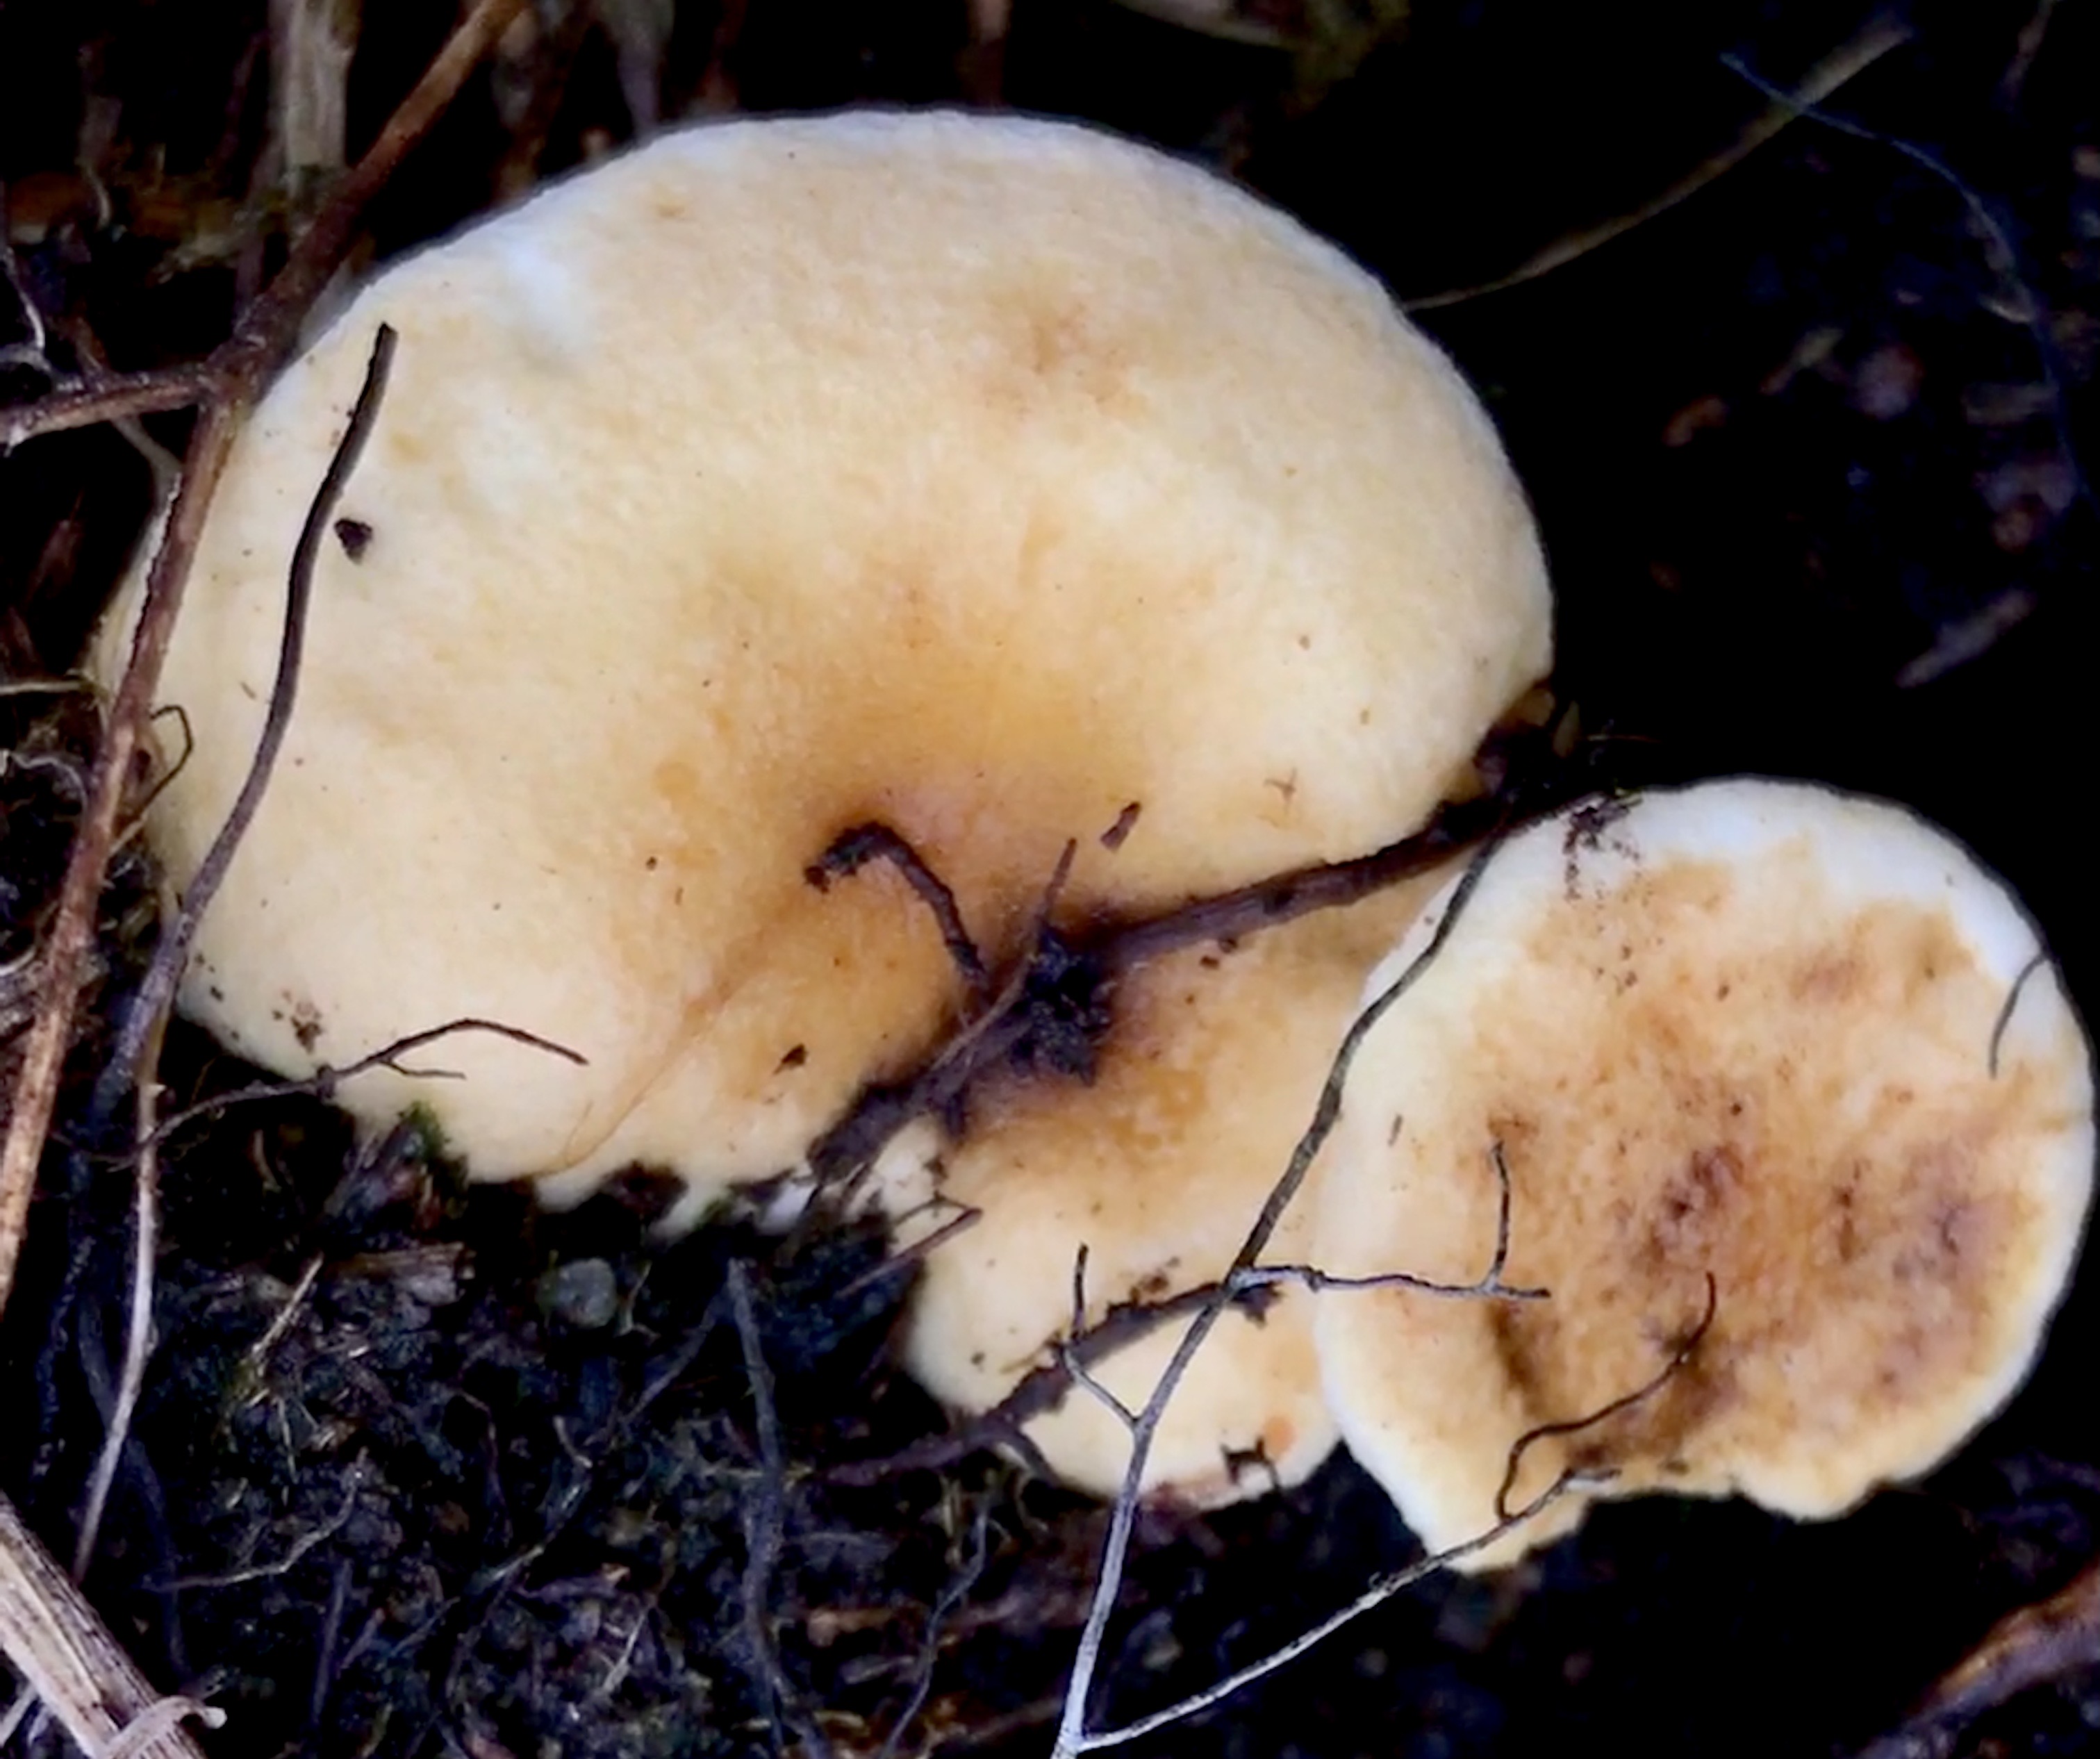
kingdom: Fungi
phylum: Basidiomycota
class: Agaricomycetes
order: Boletales
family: Hygrophoropsidaceae
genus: Hygrophoropsis
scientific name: Hygrophoropsis
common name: orangekantarel
